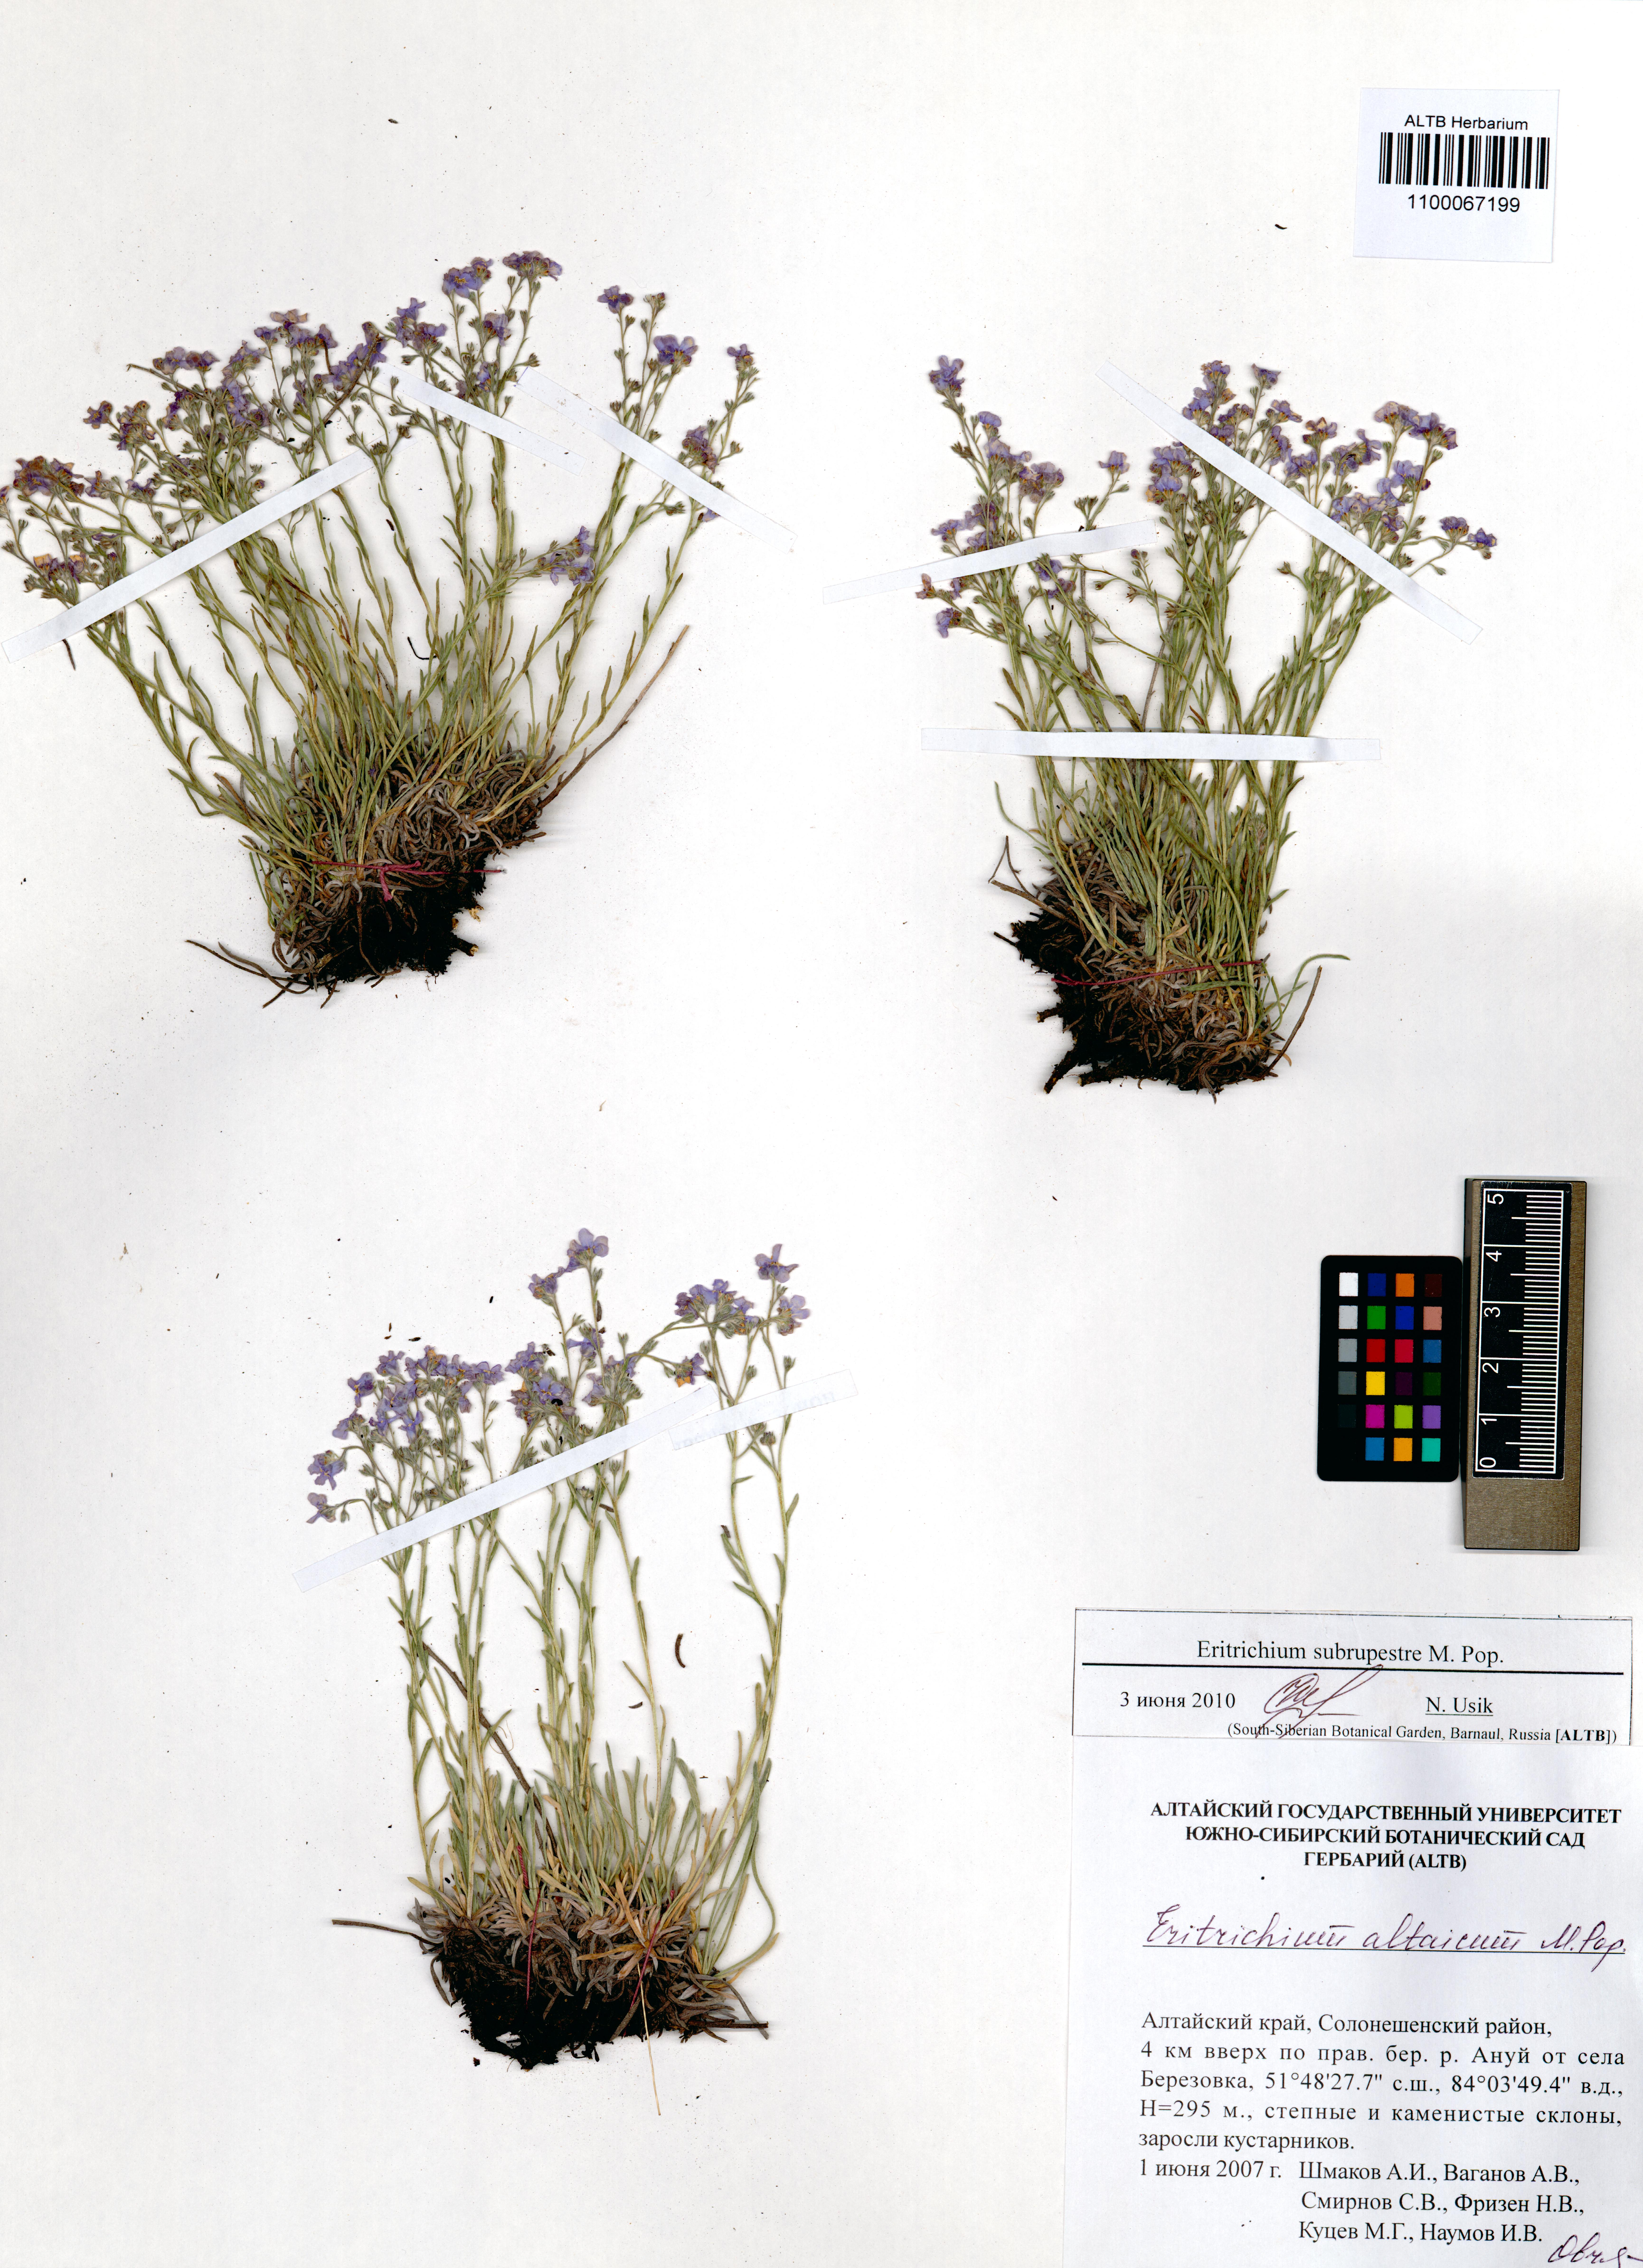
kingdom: Plantae
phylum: Tracheophyta
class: Magnoliopsida
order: Boraginales
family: Boraginaceae
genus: Eritrichium
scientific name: Eritrichium pauciflorum
